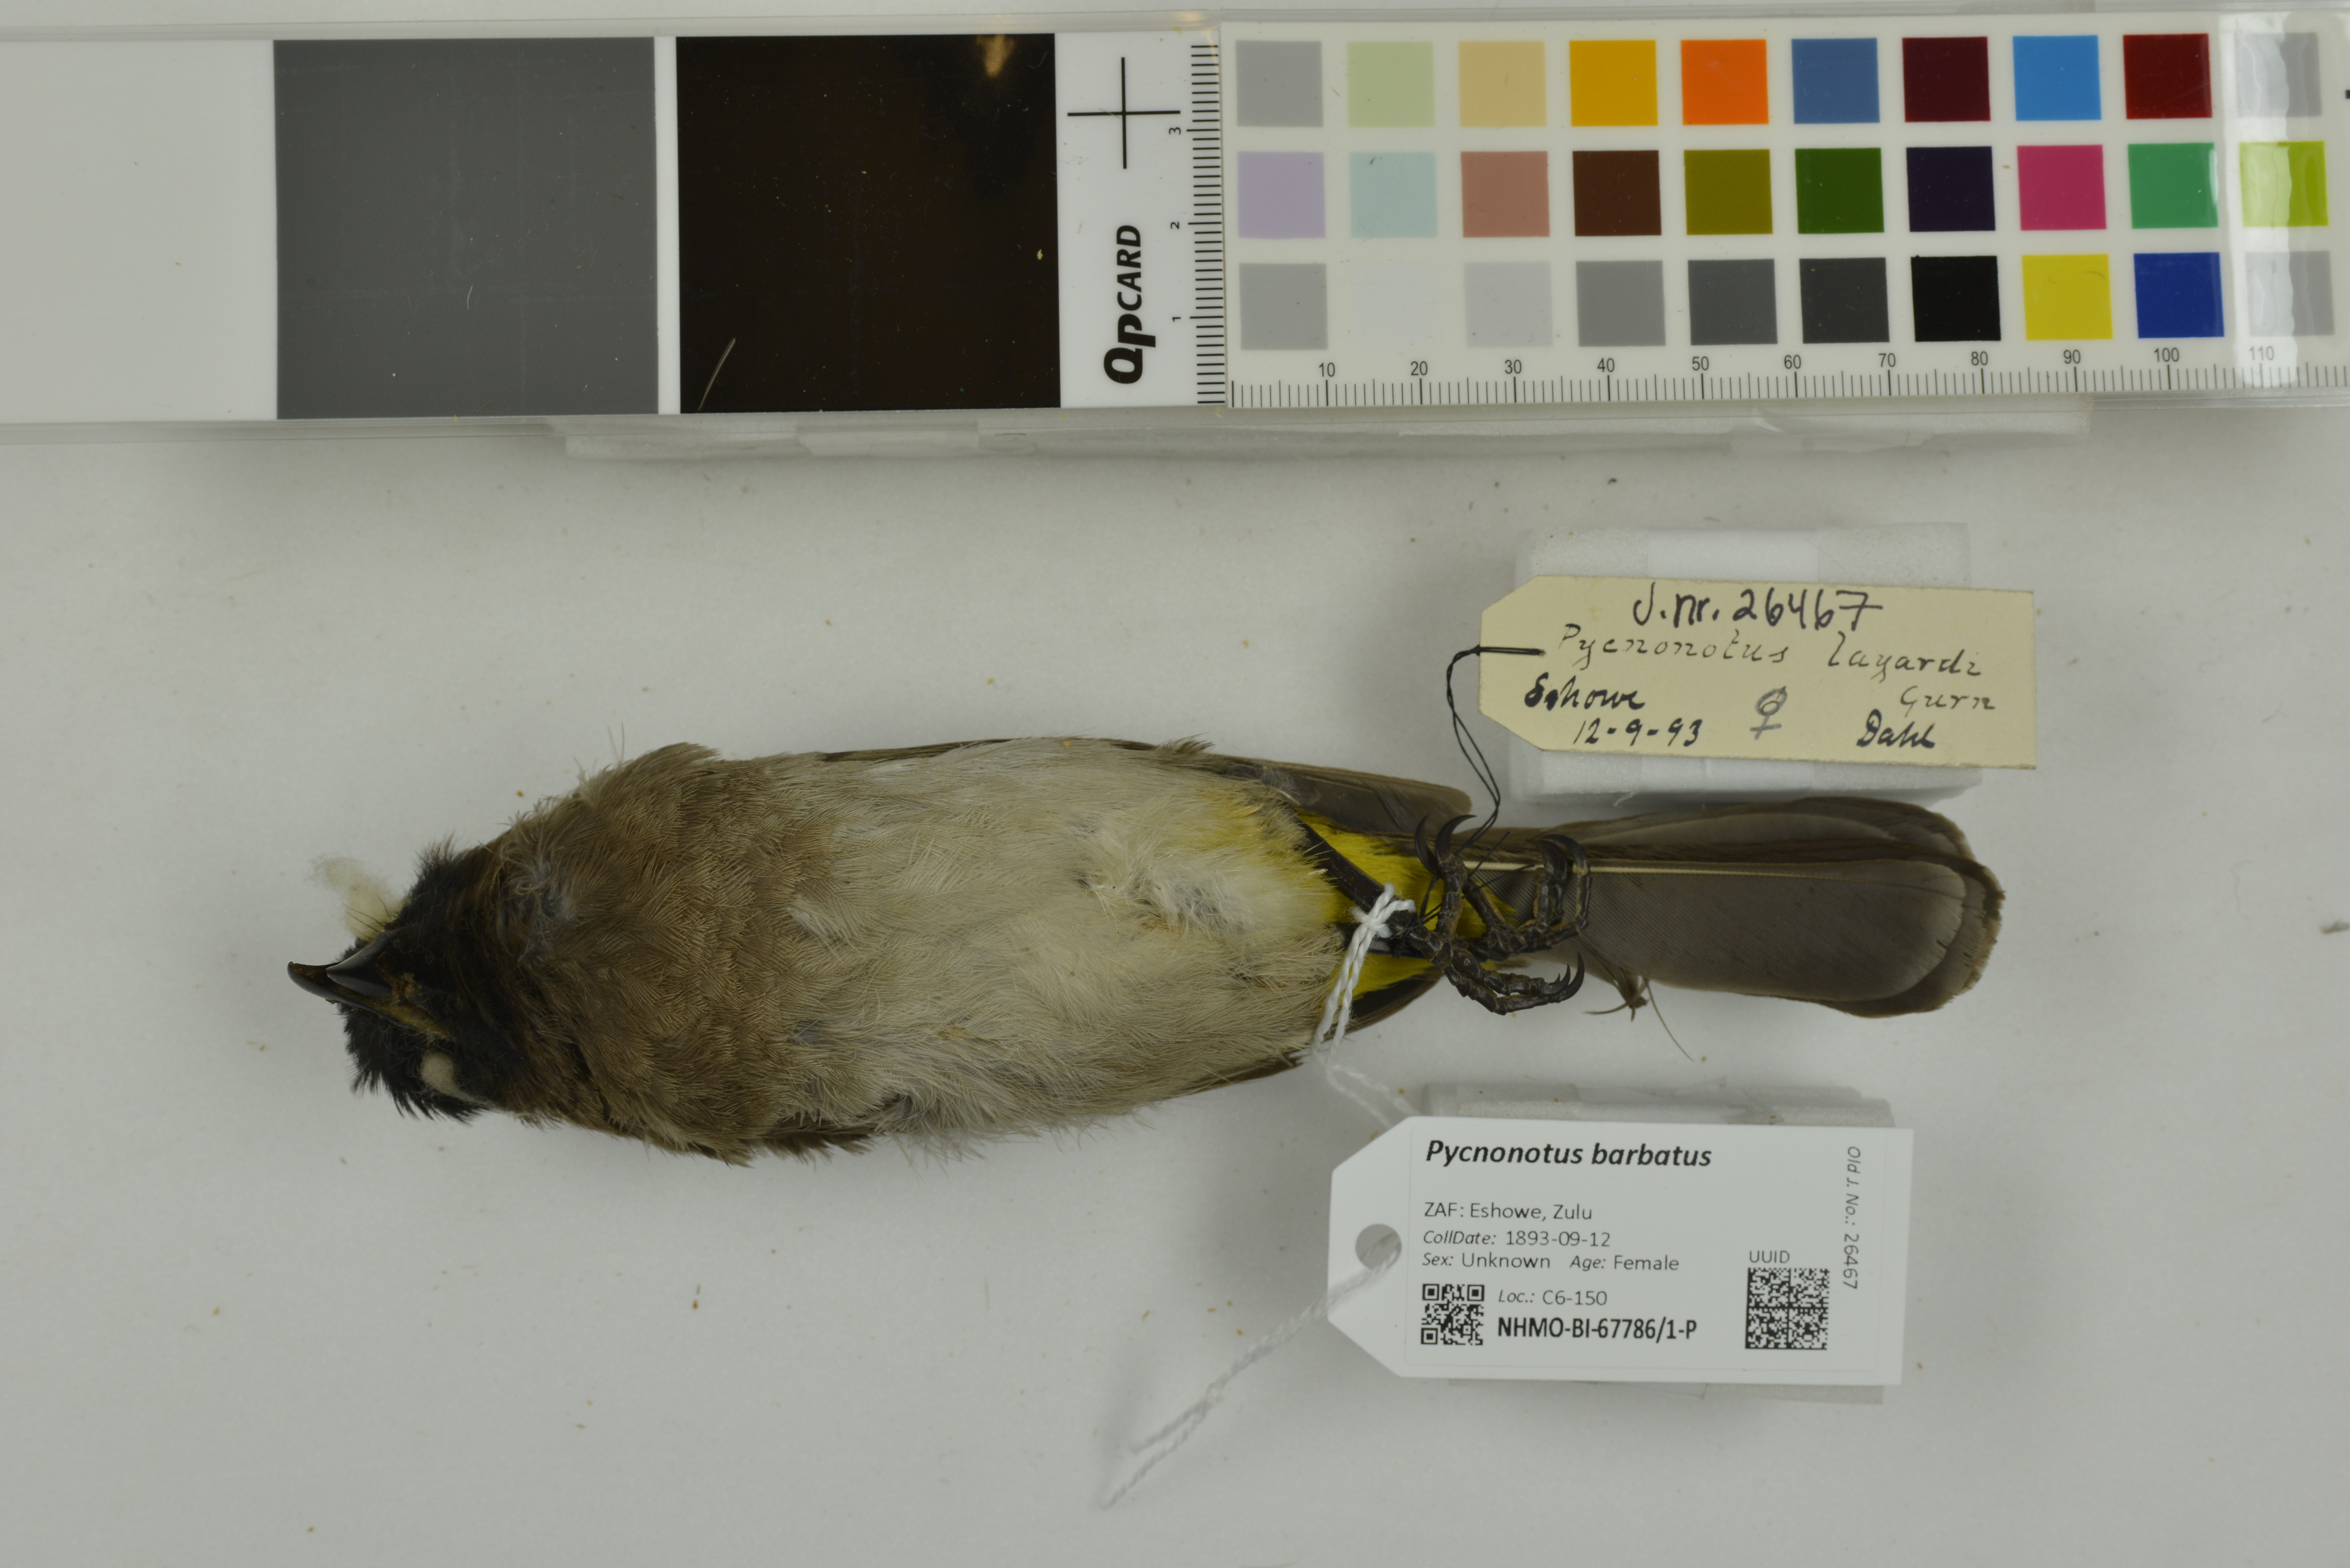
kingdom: Animalia
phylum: Chordata
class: Aves
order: Passeriformes
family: Pycnonotidae
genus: Pycnonotus
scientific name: Pycnonotus barbatus
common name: Common bulbul
